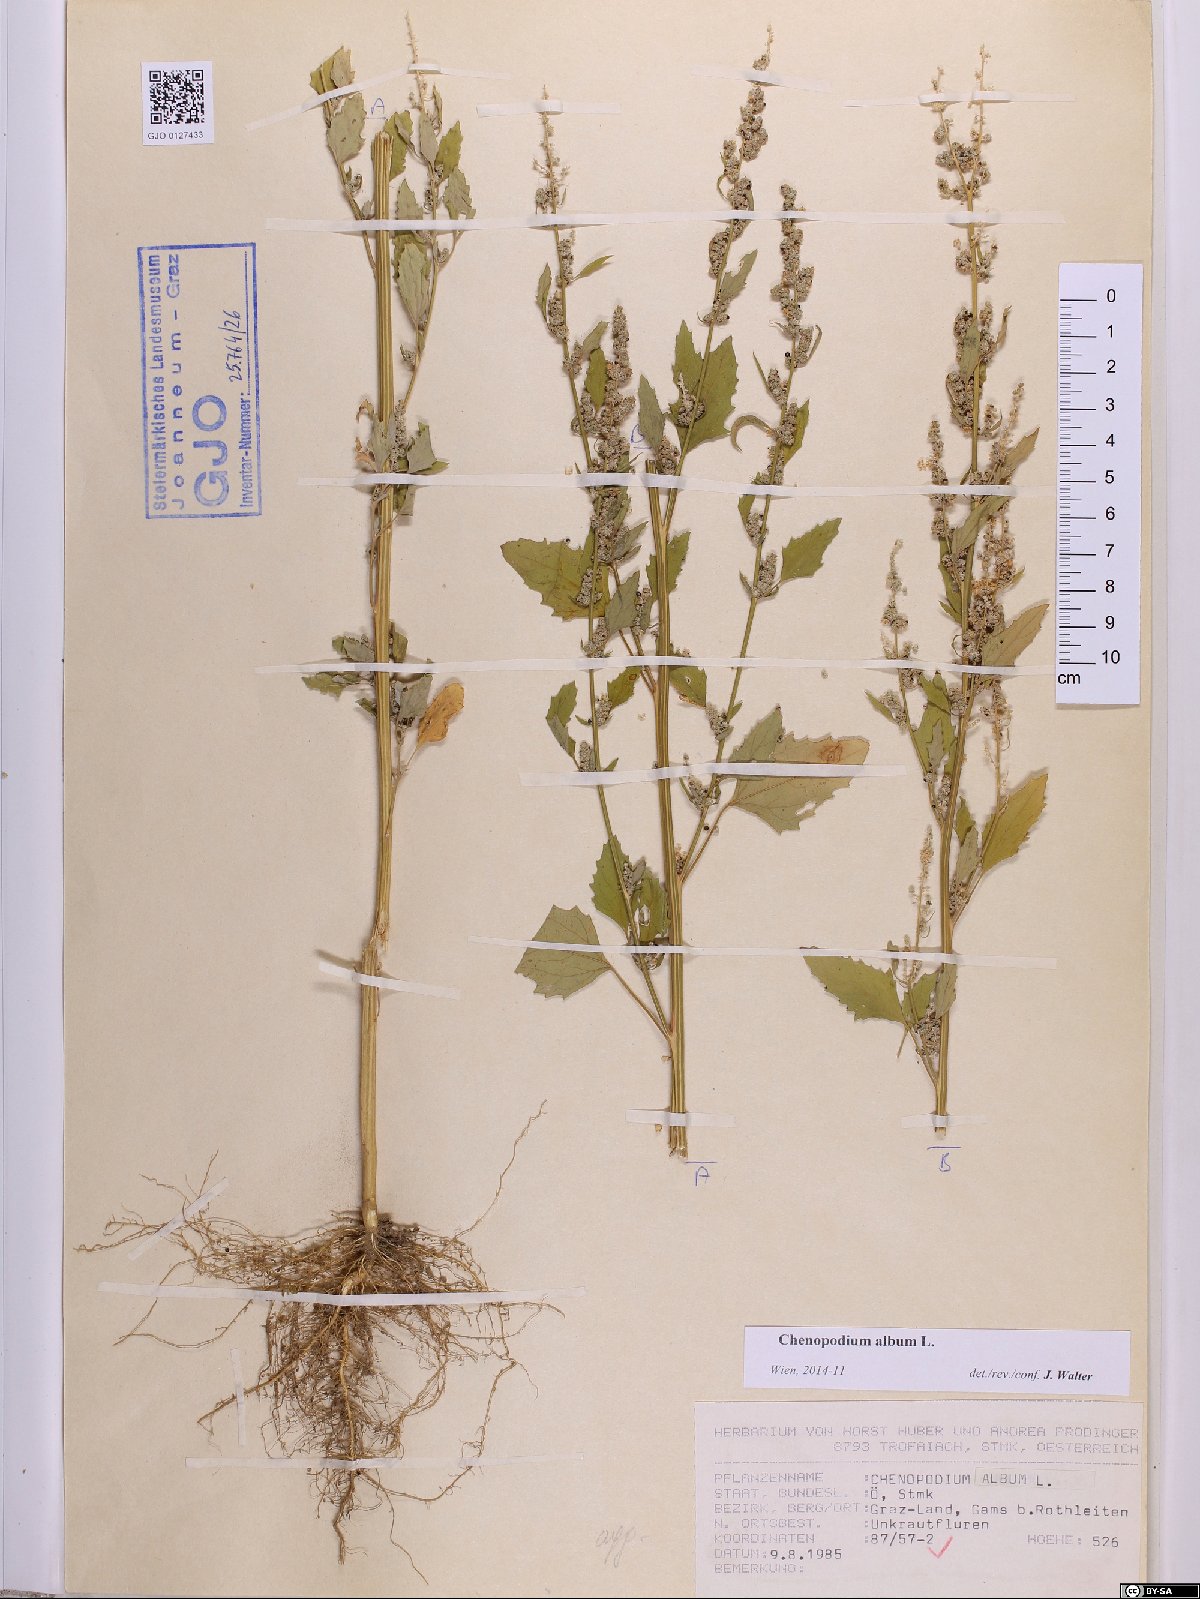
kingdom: Plantae
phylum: Tracheophyta
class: Magnoliopsida
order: Caryophyllales
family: Amaranthaceae
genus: Chenopodium
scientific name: Chenopodium album
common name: Fat-hen
